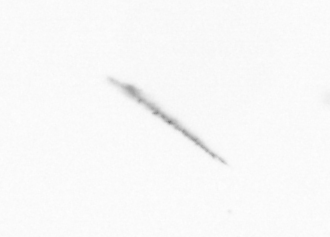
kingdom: Chromista
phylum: Ochrophyta
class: Bacillariophyceae
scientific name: Bacillariophyceae
